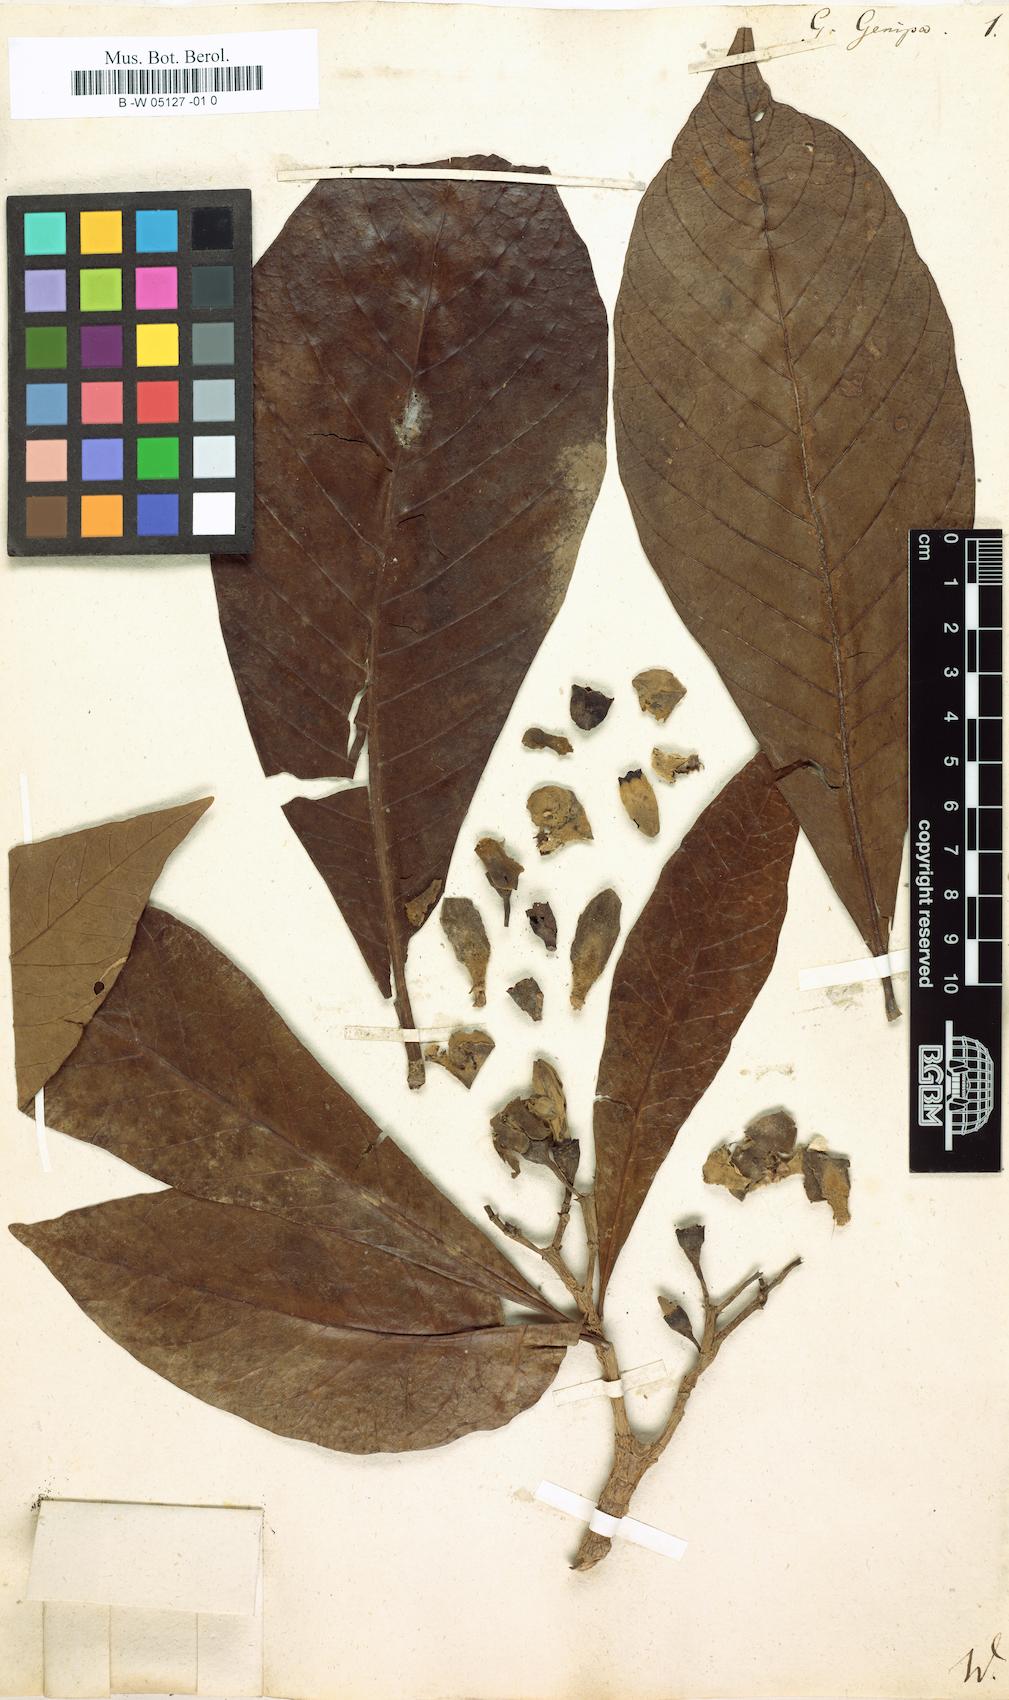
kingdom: Plantae
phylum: Tracheophyta
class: Magnoliopsida
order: Gentianales
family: Rubiaceae
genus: Genipa
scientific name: Genipa americana
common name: Genipap
